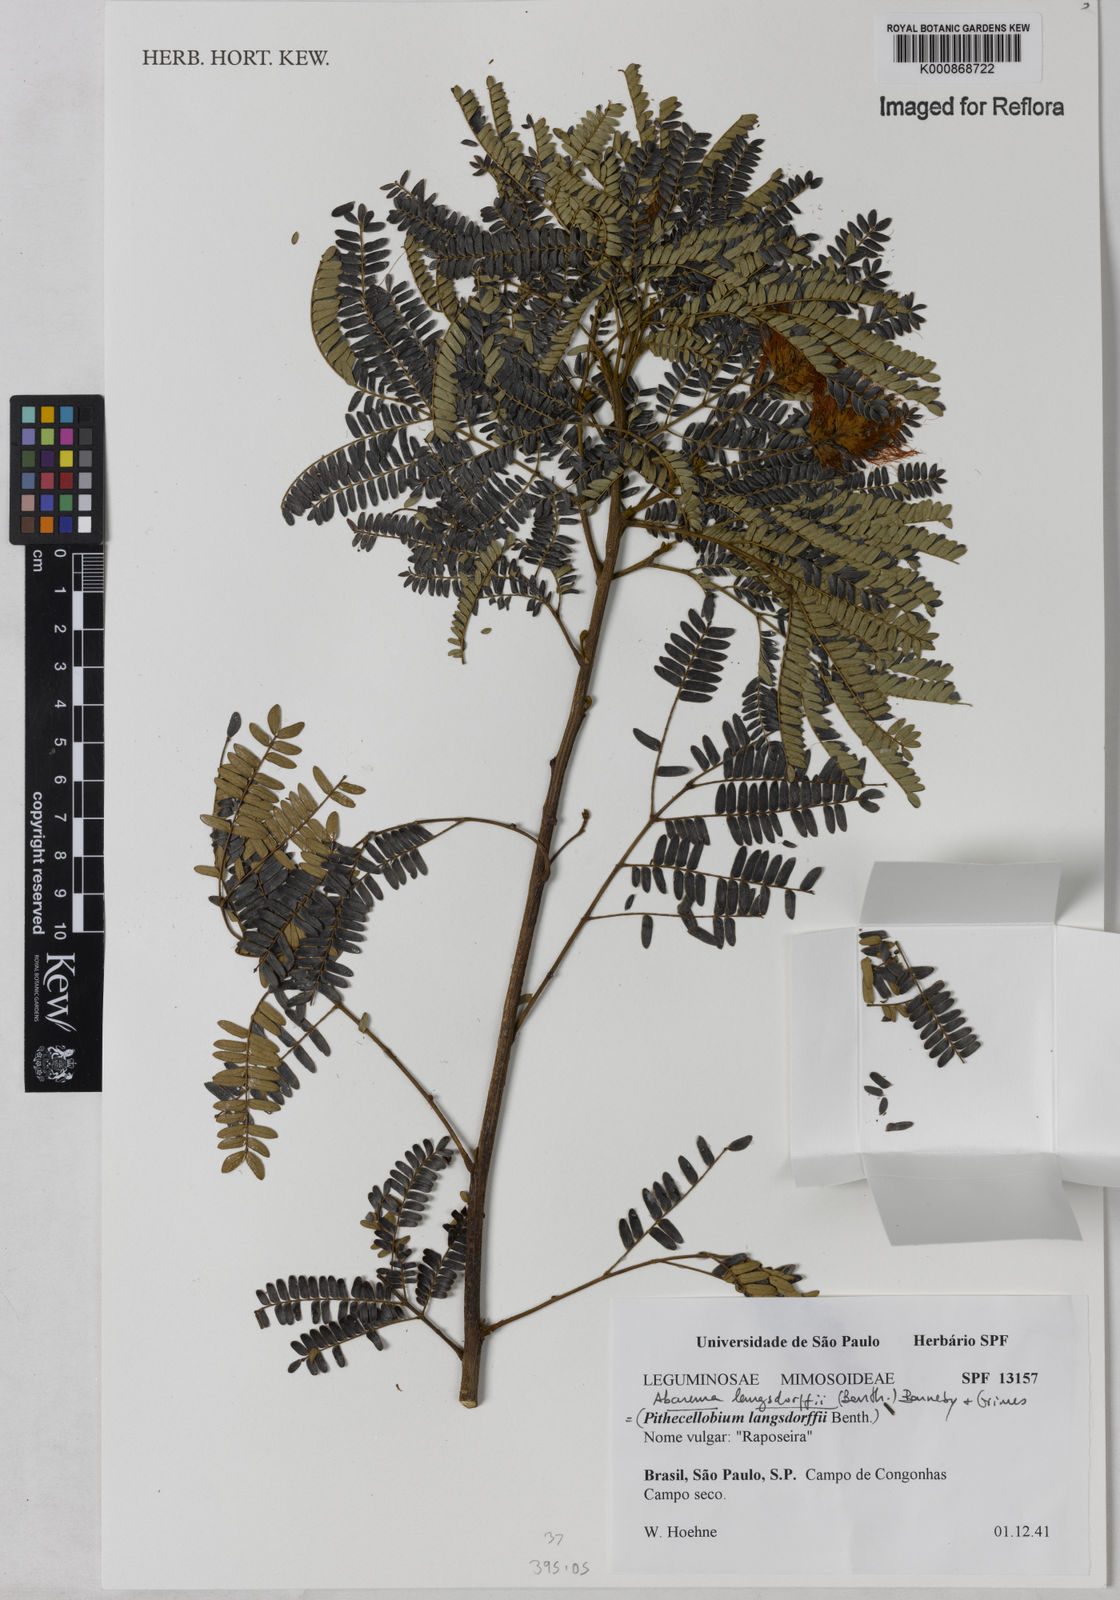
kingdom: Plantae
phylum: Tracheophyta
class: Magnoliopsida
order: Fabales
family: Fabaceae
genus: Jupunba
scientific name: Jupunba langsdorffii
